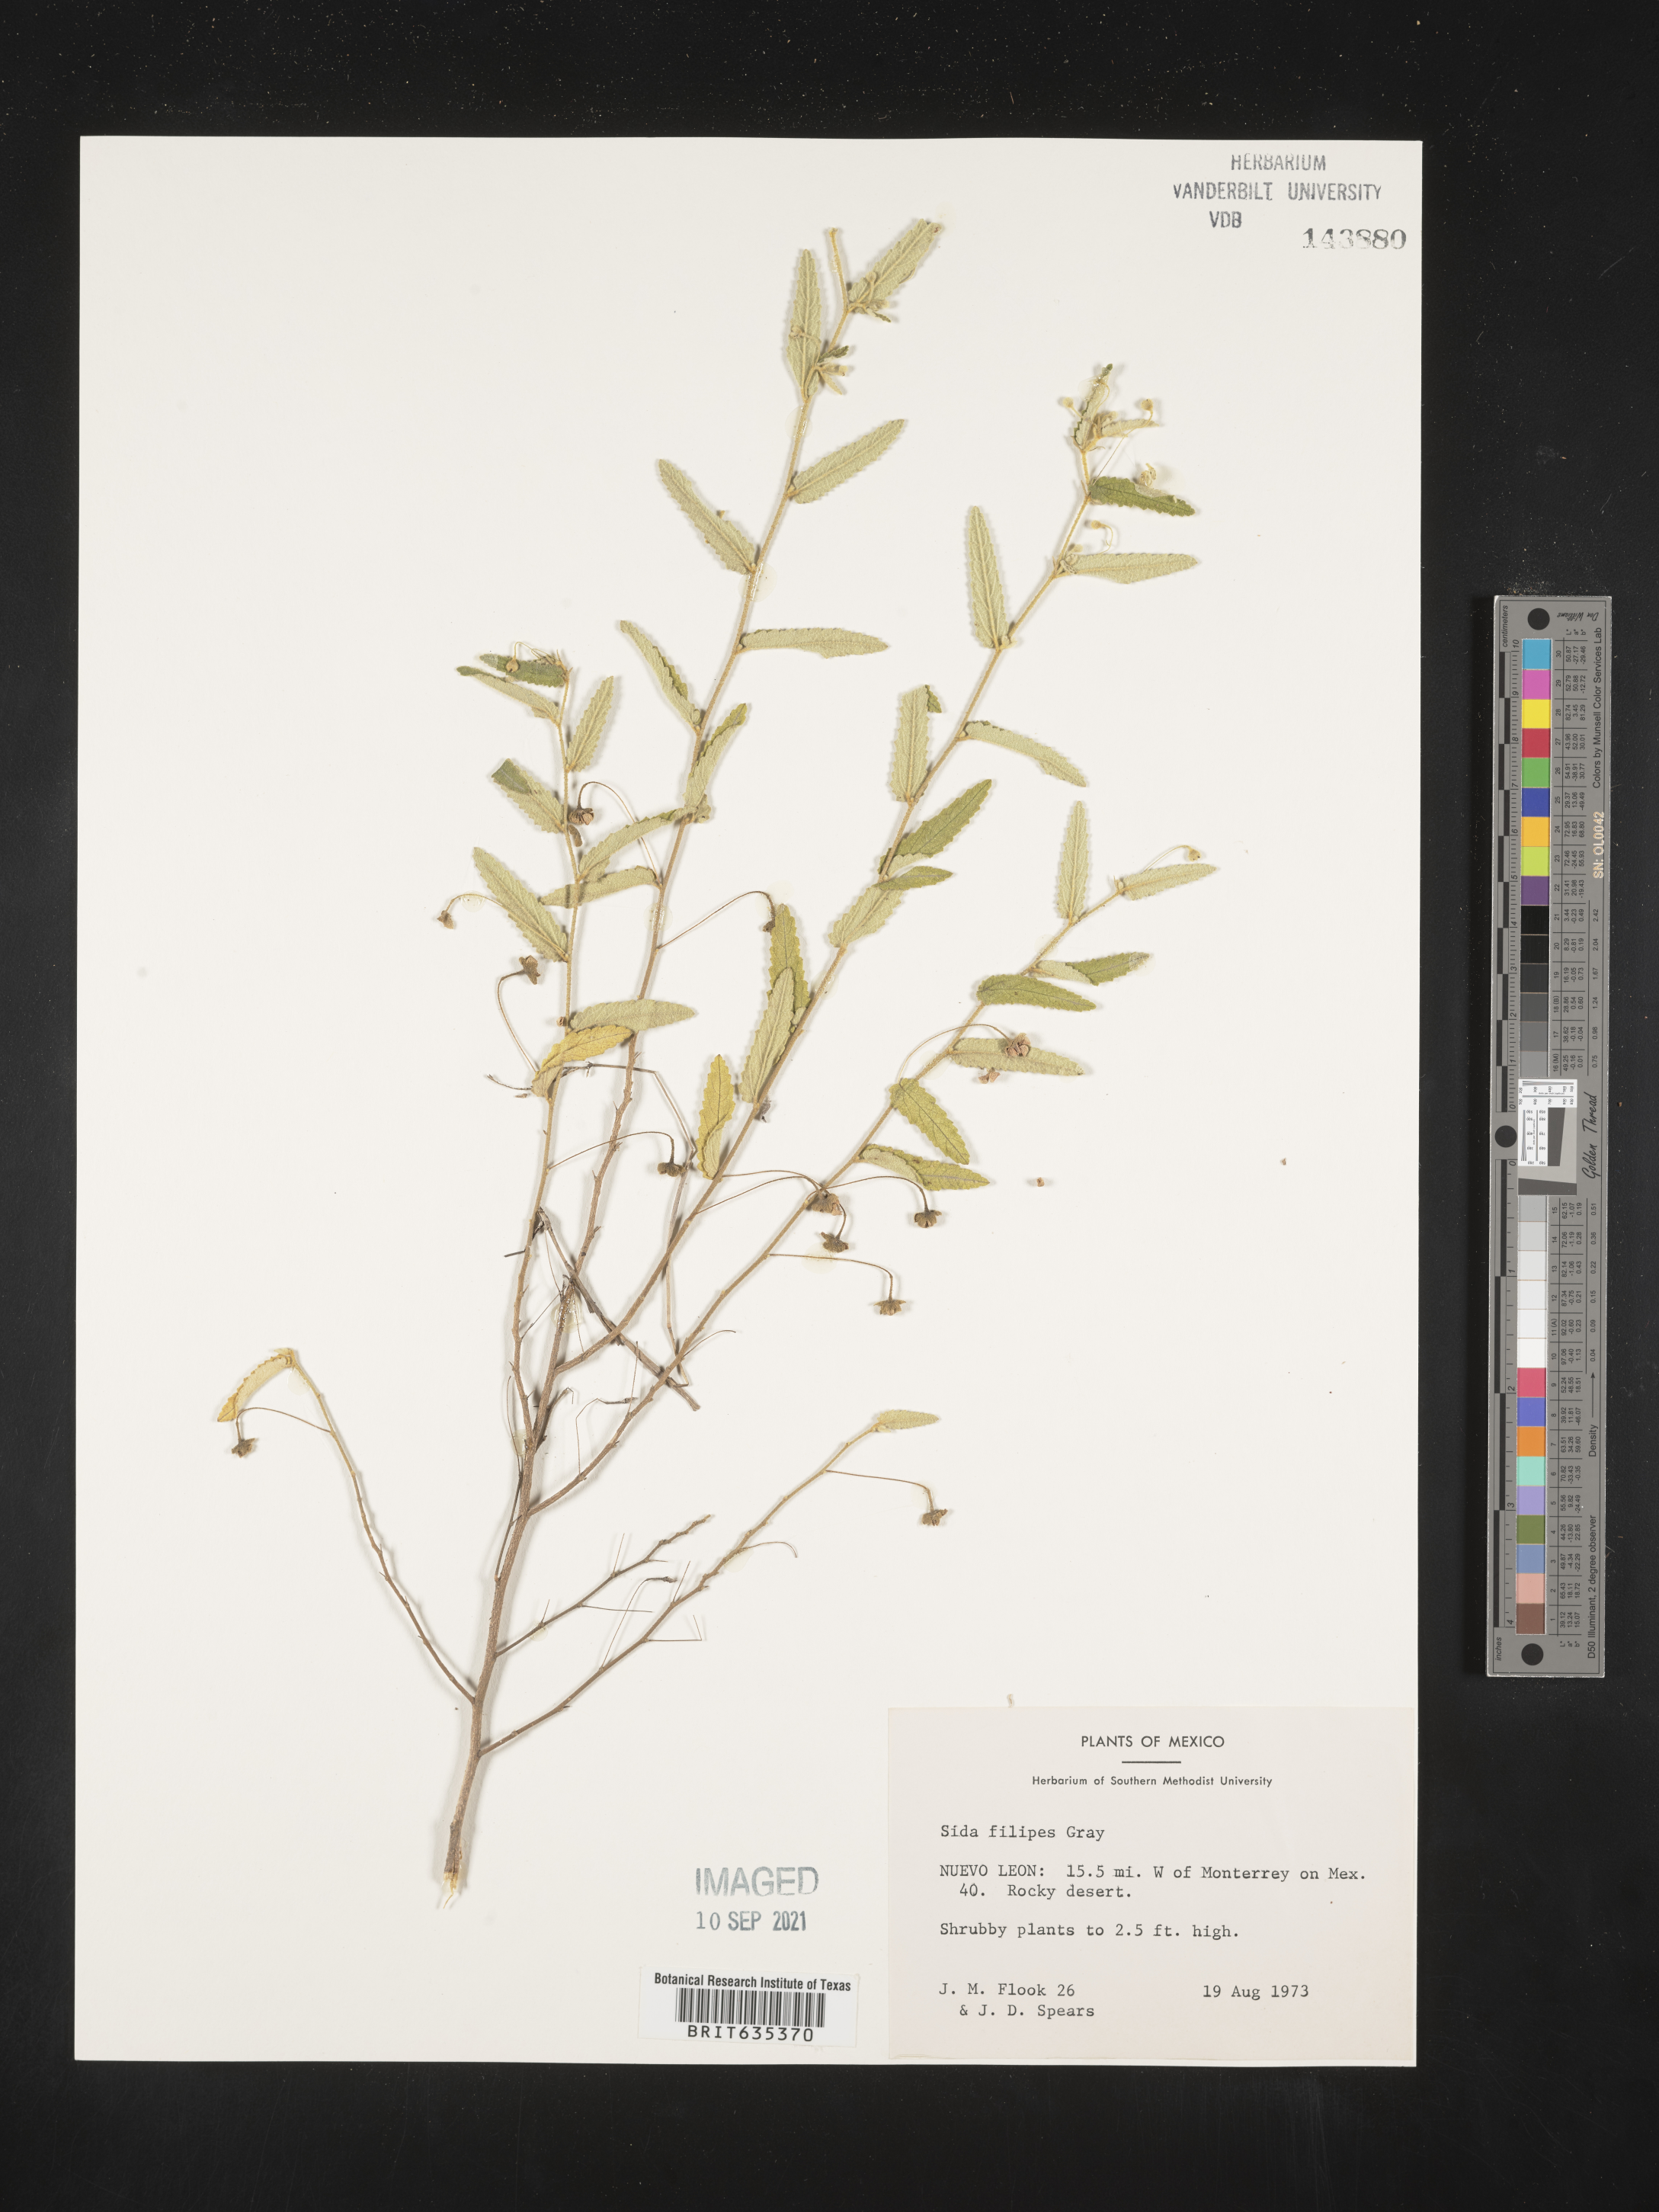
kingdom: Plantae
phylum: Tracheophyta
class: Magnoliopsida
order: Malvales
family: Malvaceae
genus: Sida
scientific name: Sida
